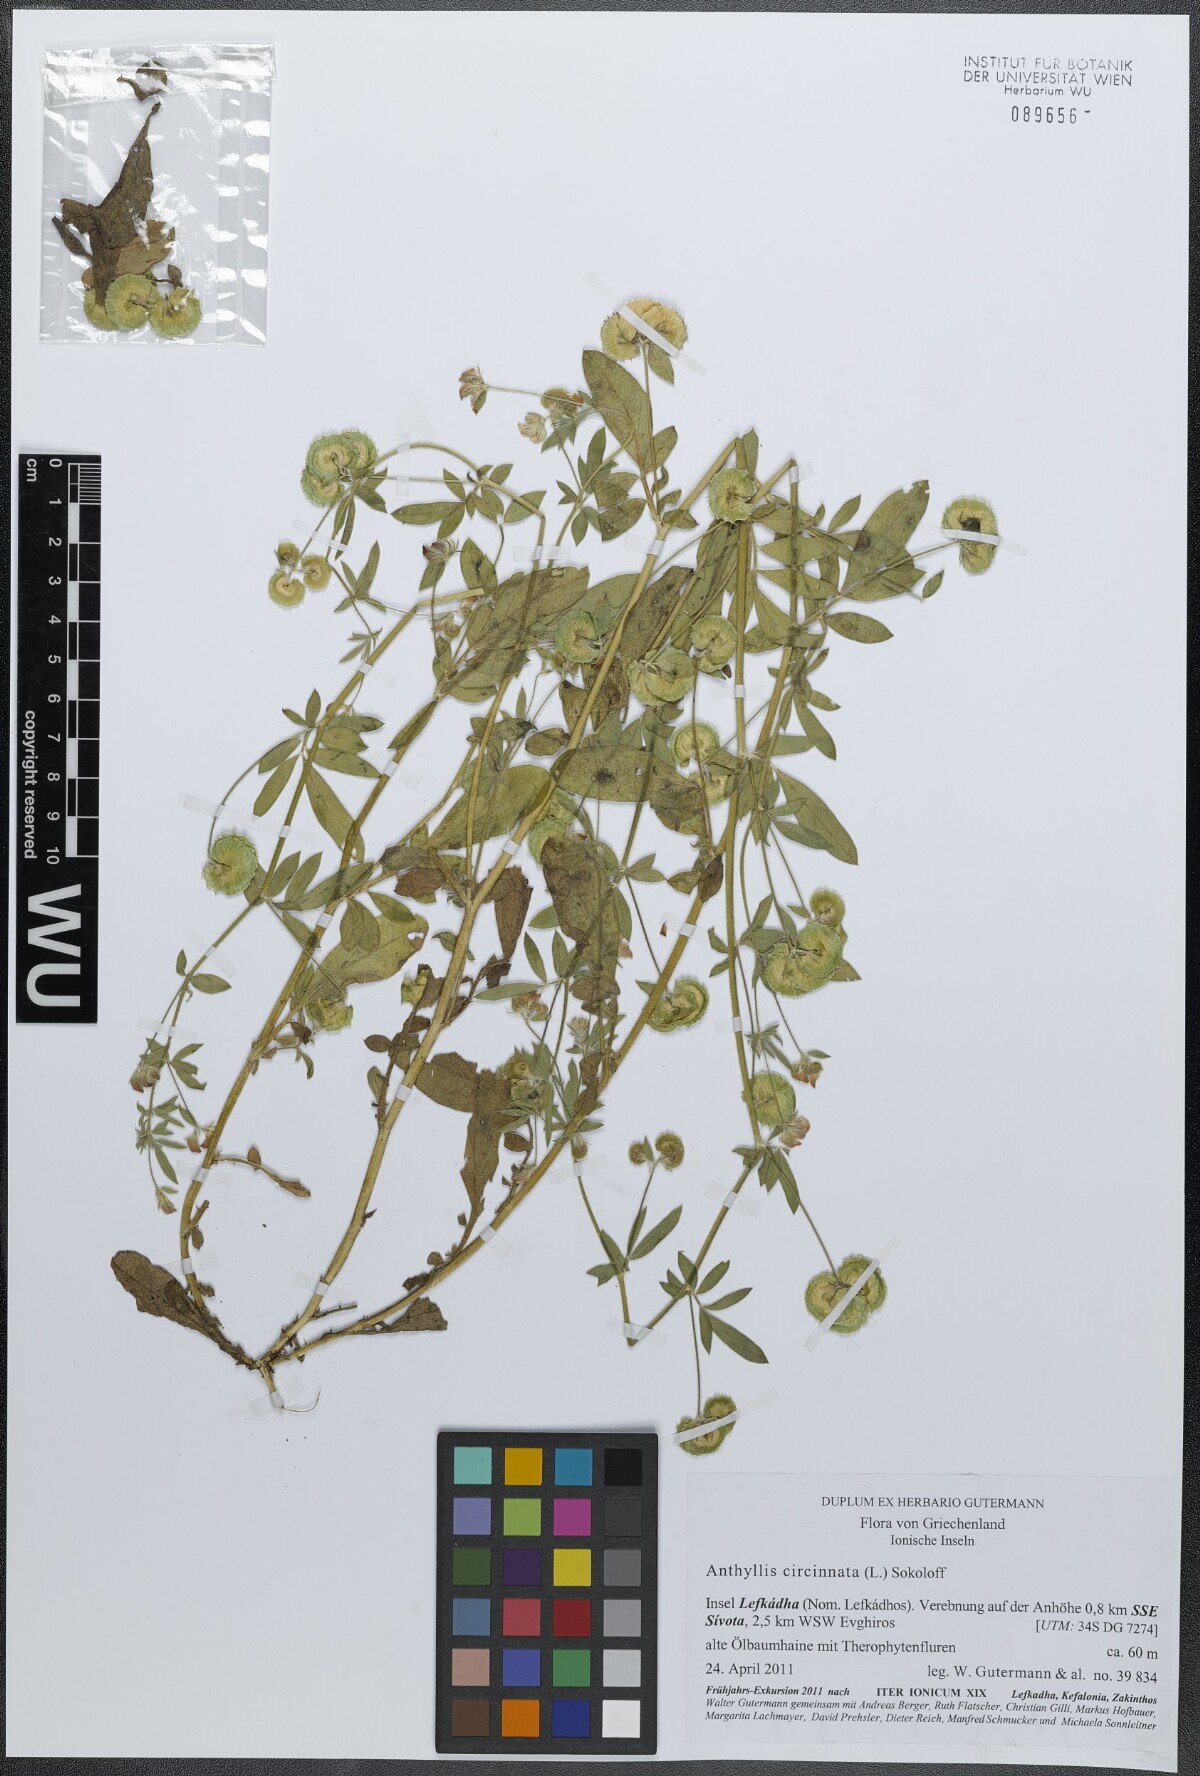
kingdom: Plantae
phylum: Tracheophyta
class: Magnoliopsida
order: Fabales
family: Fabaceae
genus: Anthyllis
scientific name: Anthyllis circinnata
